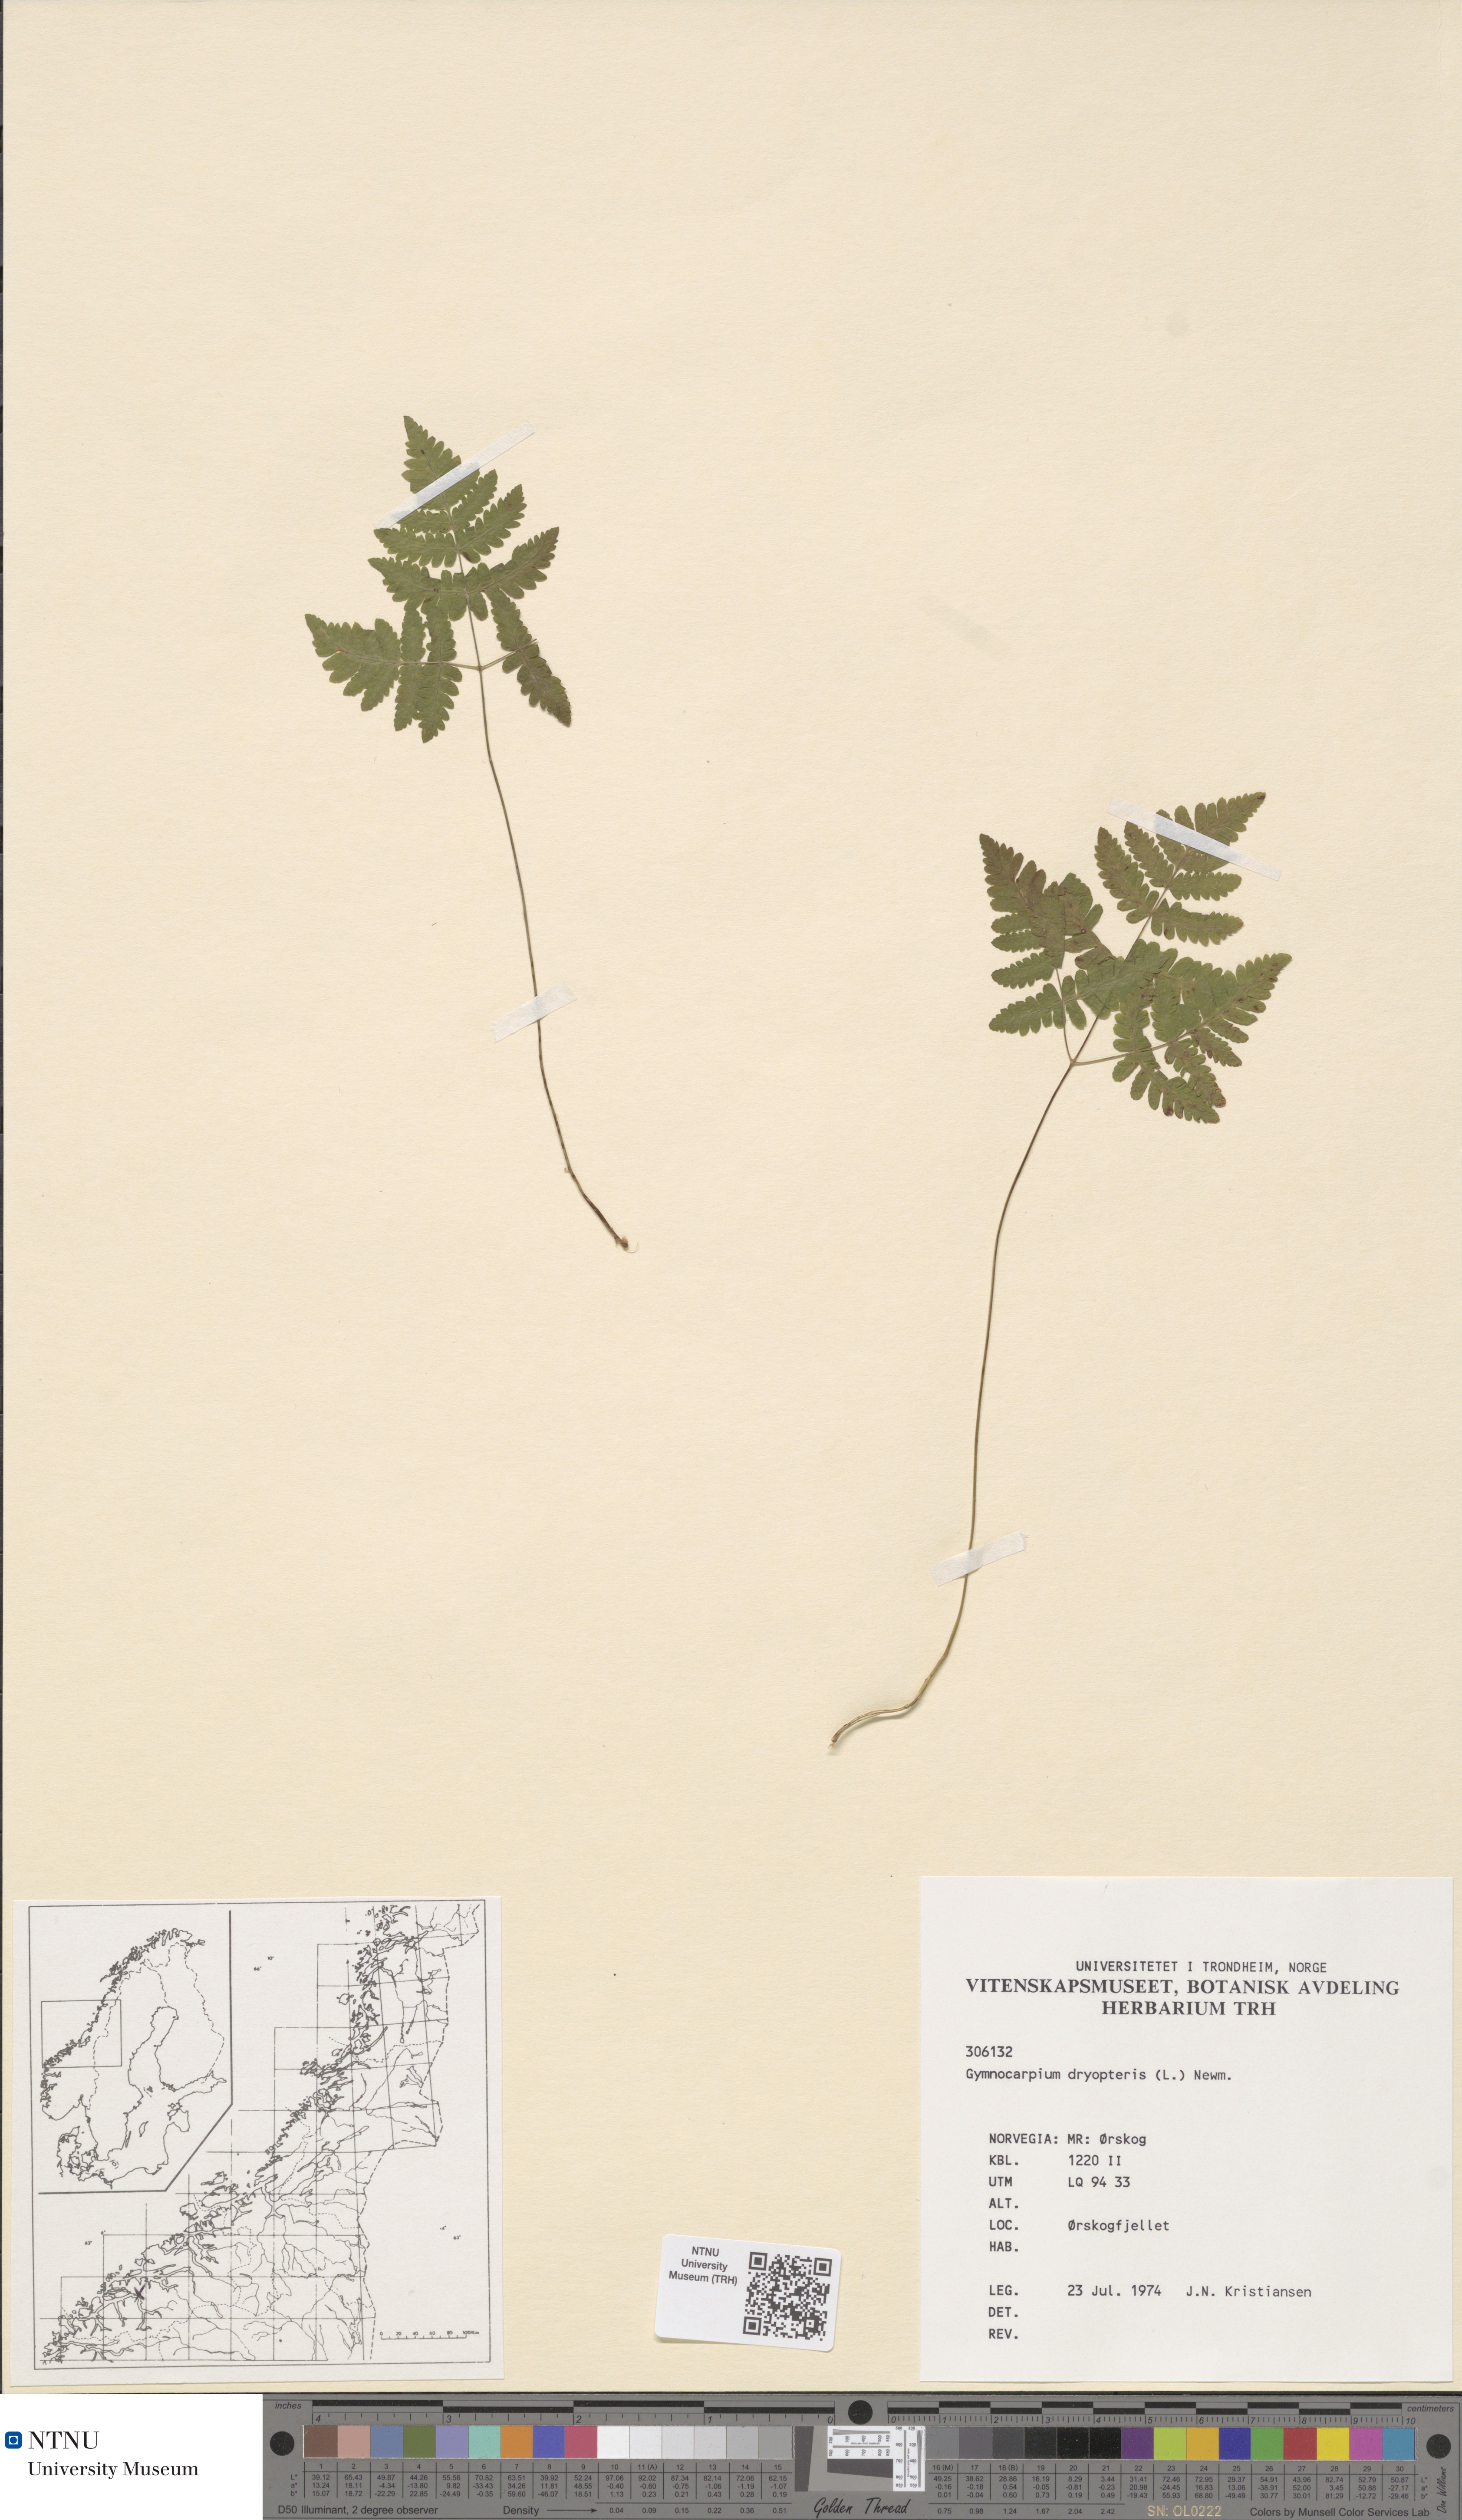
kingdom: Plantae
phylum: Tracheophyta
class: Polypodiopsida
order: Polypodiales
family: Cystopteridaceae
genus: Gymnocarpium
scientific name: Gymnocarpium dryopteris
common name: Oak fern
